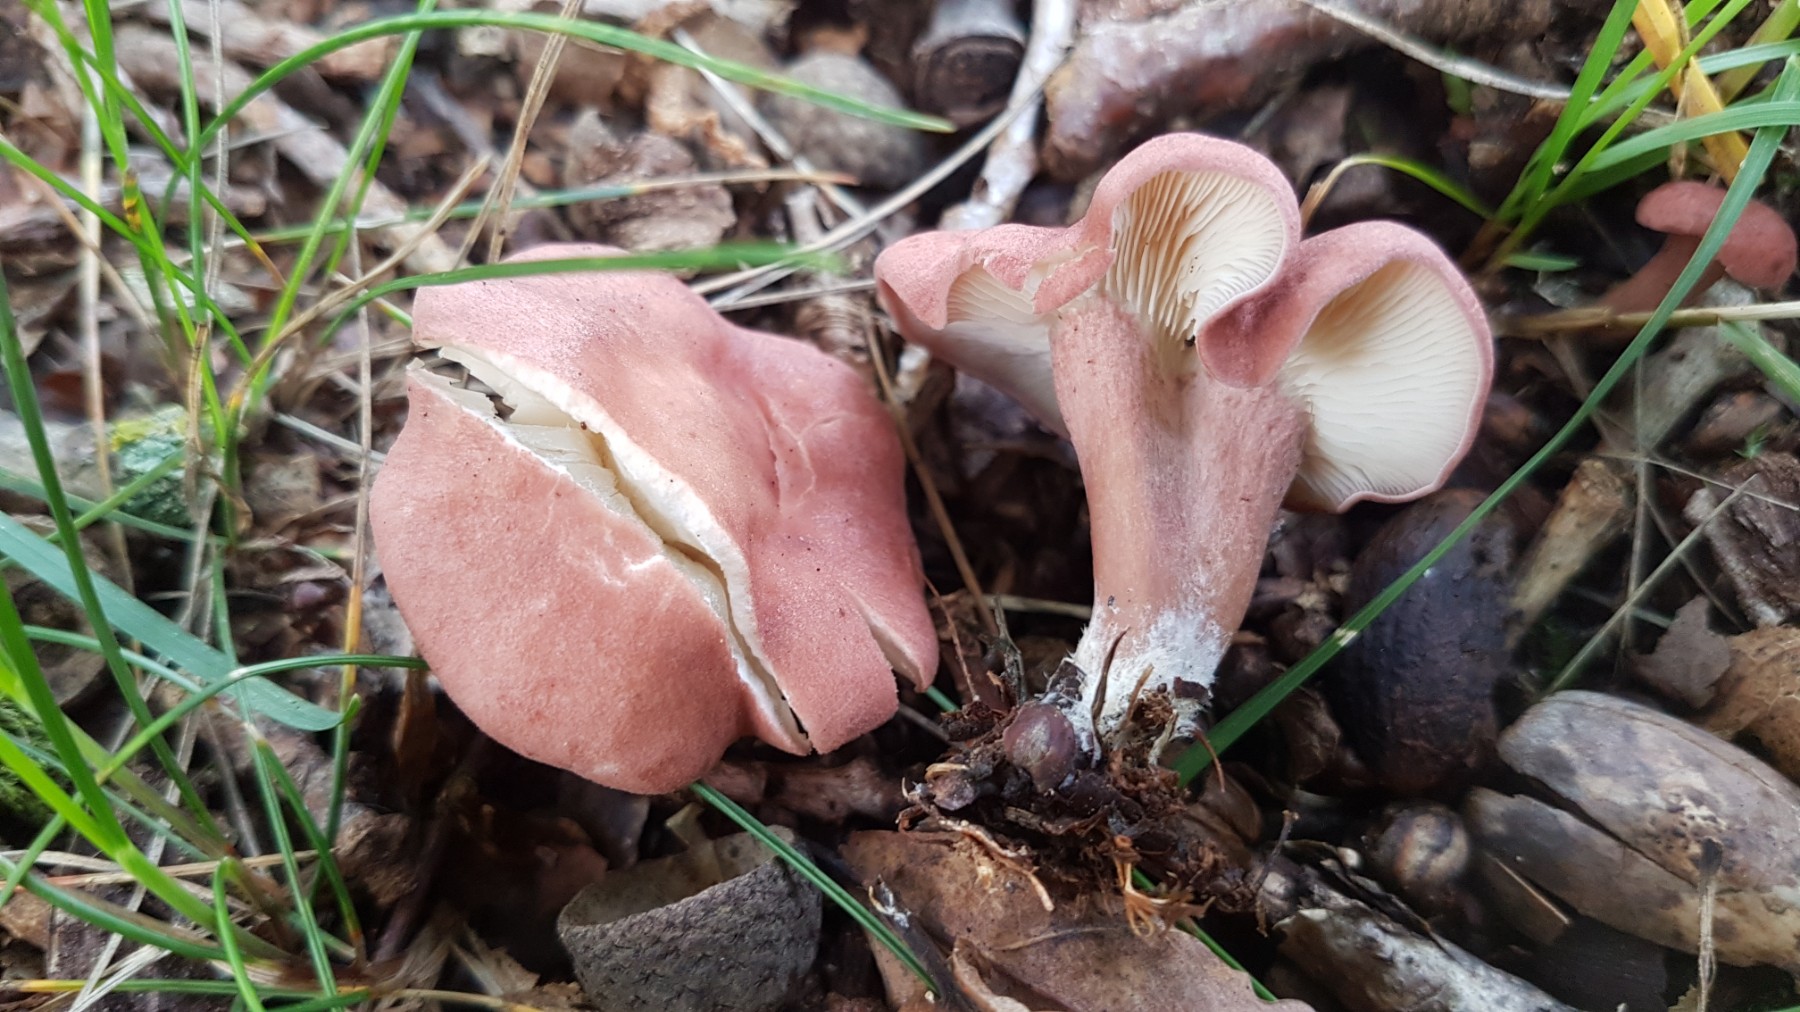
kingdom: Fungi
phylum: Basidiomycota
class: Agaricomycetes
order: Agaricales
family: Lyophyllaceae
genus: Calocybe
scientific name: Calocybe carnea
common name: rosa fagerhat
